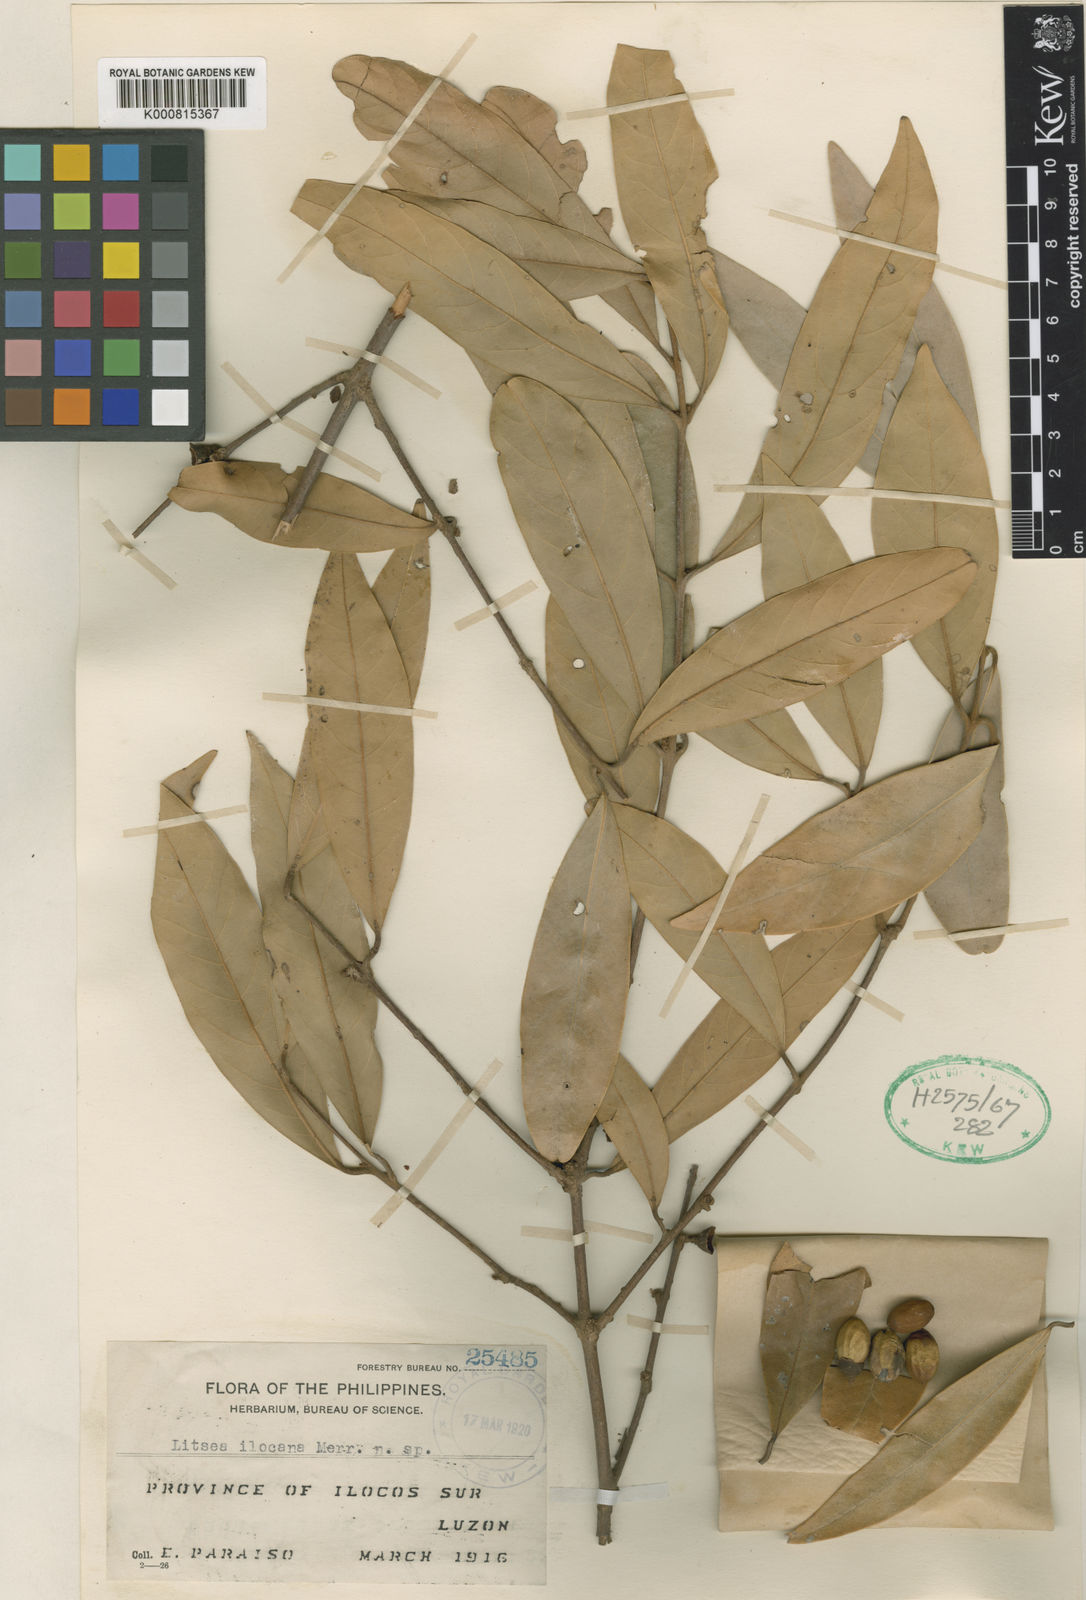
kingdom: Plantae
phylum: Tracheophyta
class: Magnoliopsida
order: Laurales
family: Lauraceae
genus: Litsea
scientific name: Litsea ilocana
